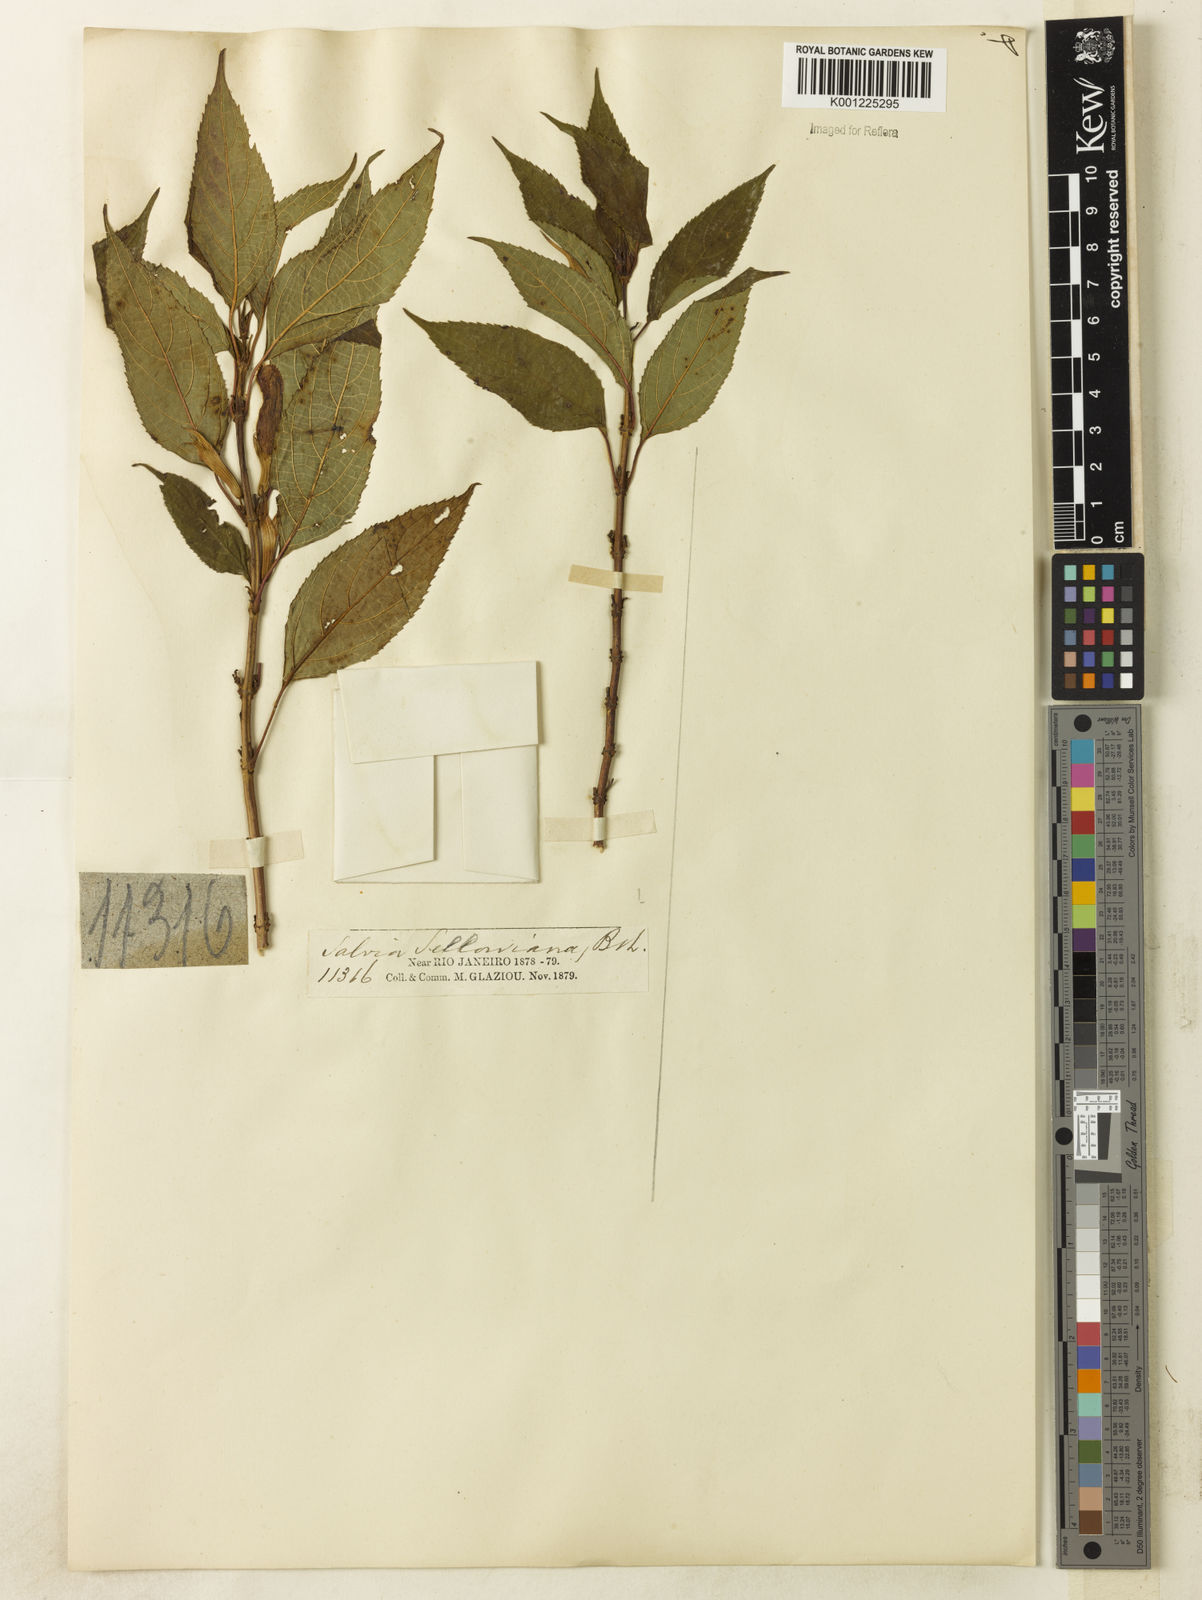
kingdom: Plantae
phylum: Tracheophyta
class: Magnoliopsida
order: Lamiales
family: Lamiaceae
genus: Salvia
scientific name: Salvia sellowiana
